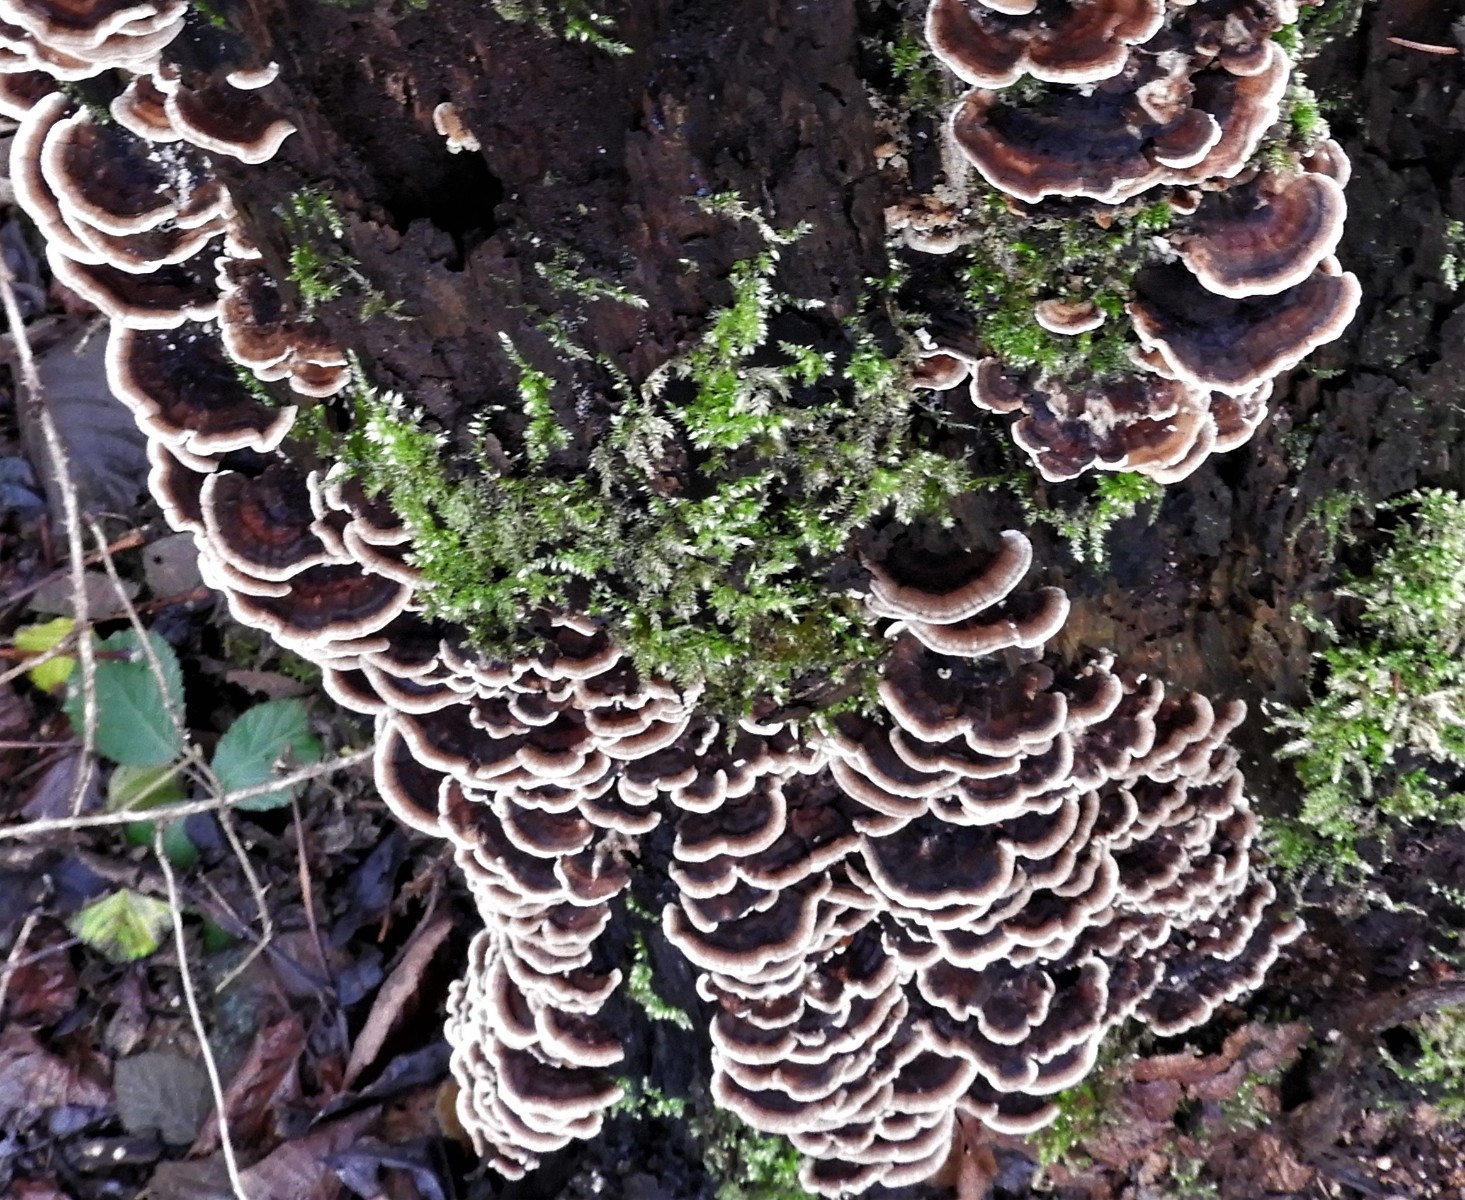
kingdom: Fungi
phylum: Basidiomycota
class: Agaricomycetes
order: Polyporales
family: Polyporaceae
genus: Trametes
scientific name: Trametes versicolor
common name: broget læderporesvamp
